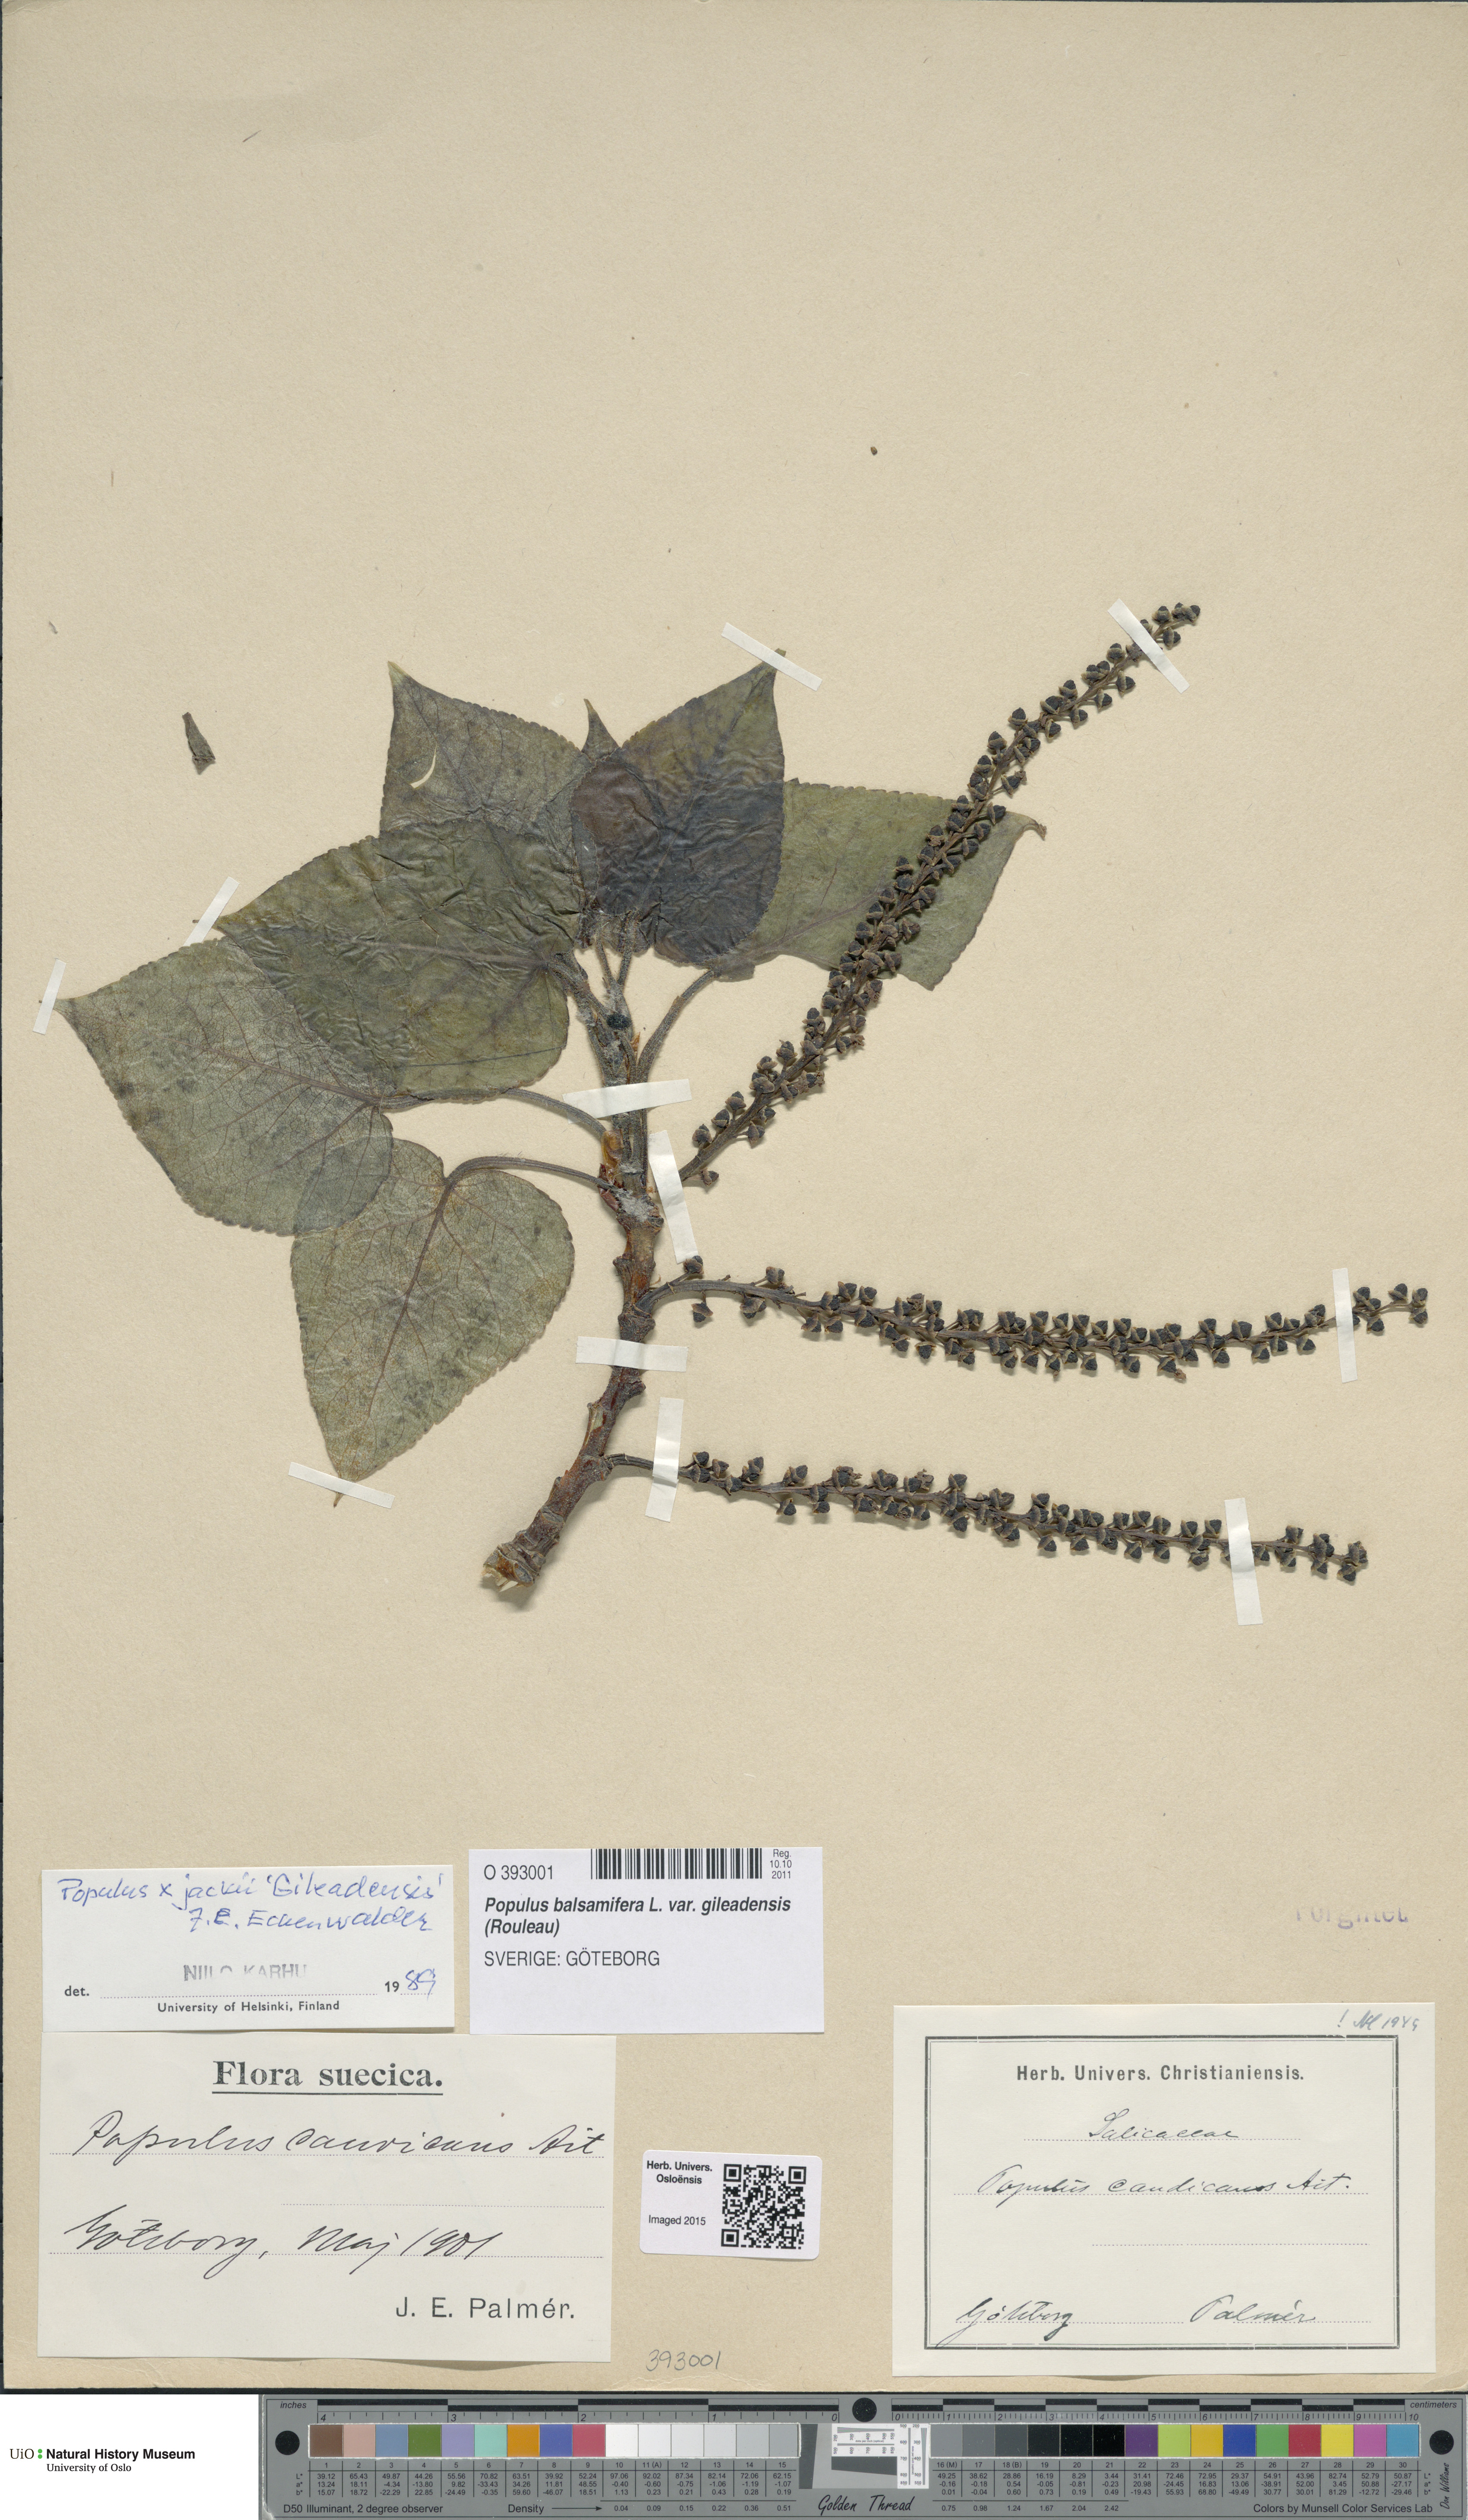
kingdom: Plantae
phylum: Tracheophyta
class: Magnoliopsida
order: Malpighiales
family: Salicaceae
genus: Populus
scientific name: Populus jackii
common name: Balm-of-gilead
